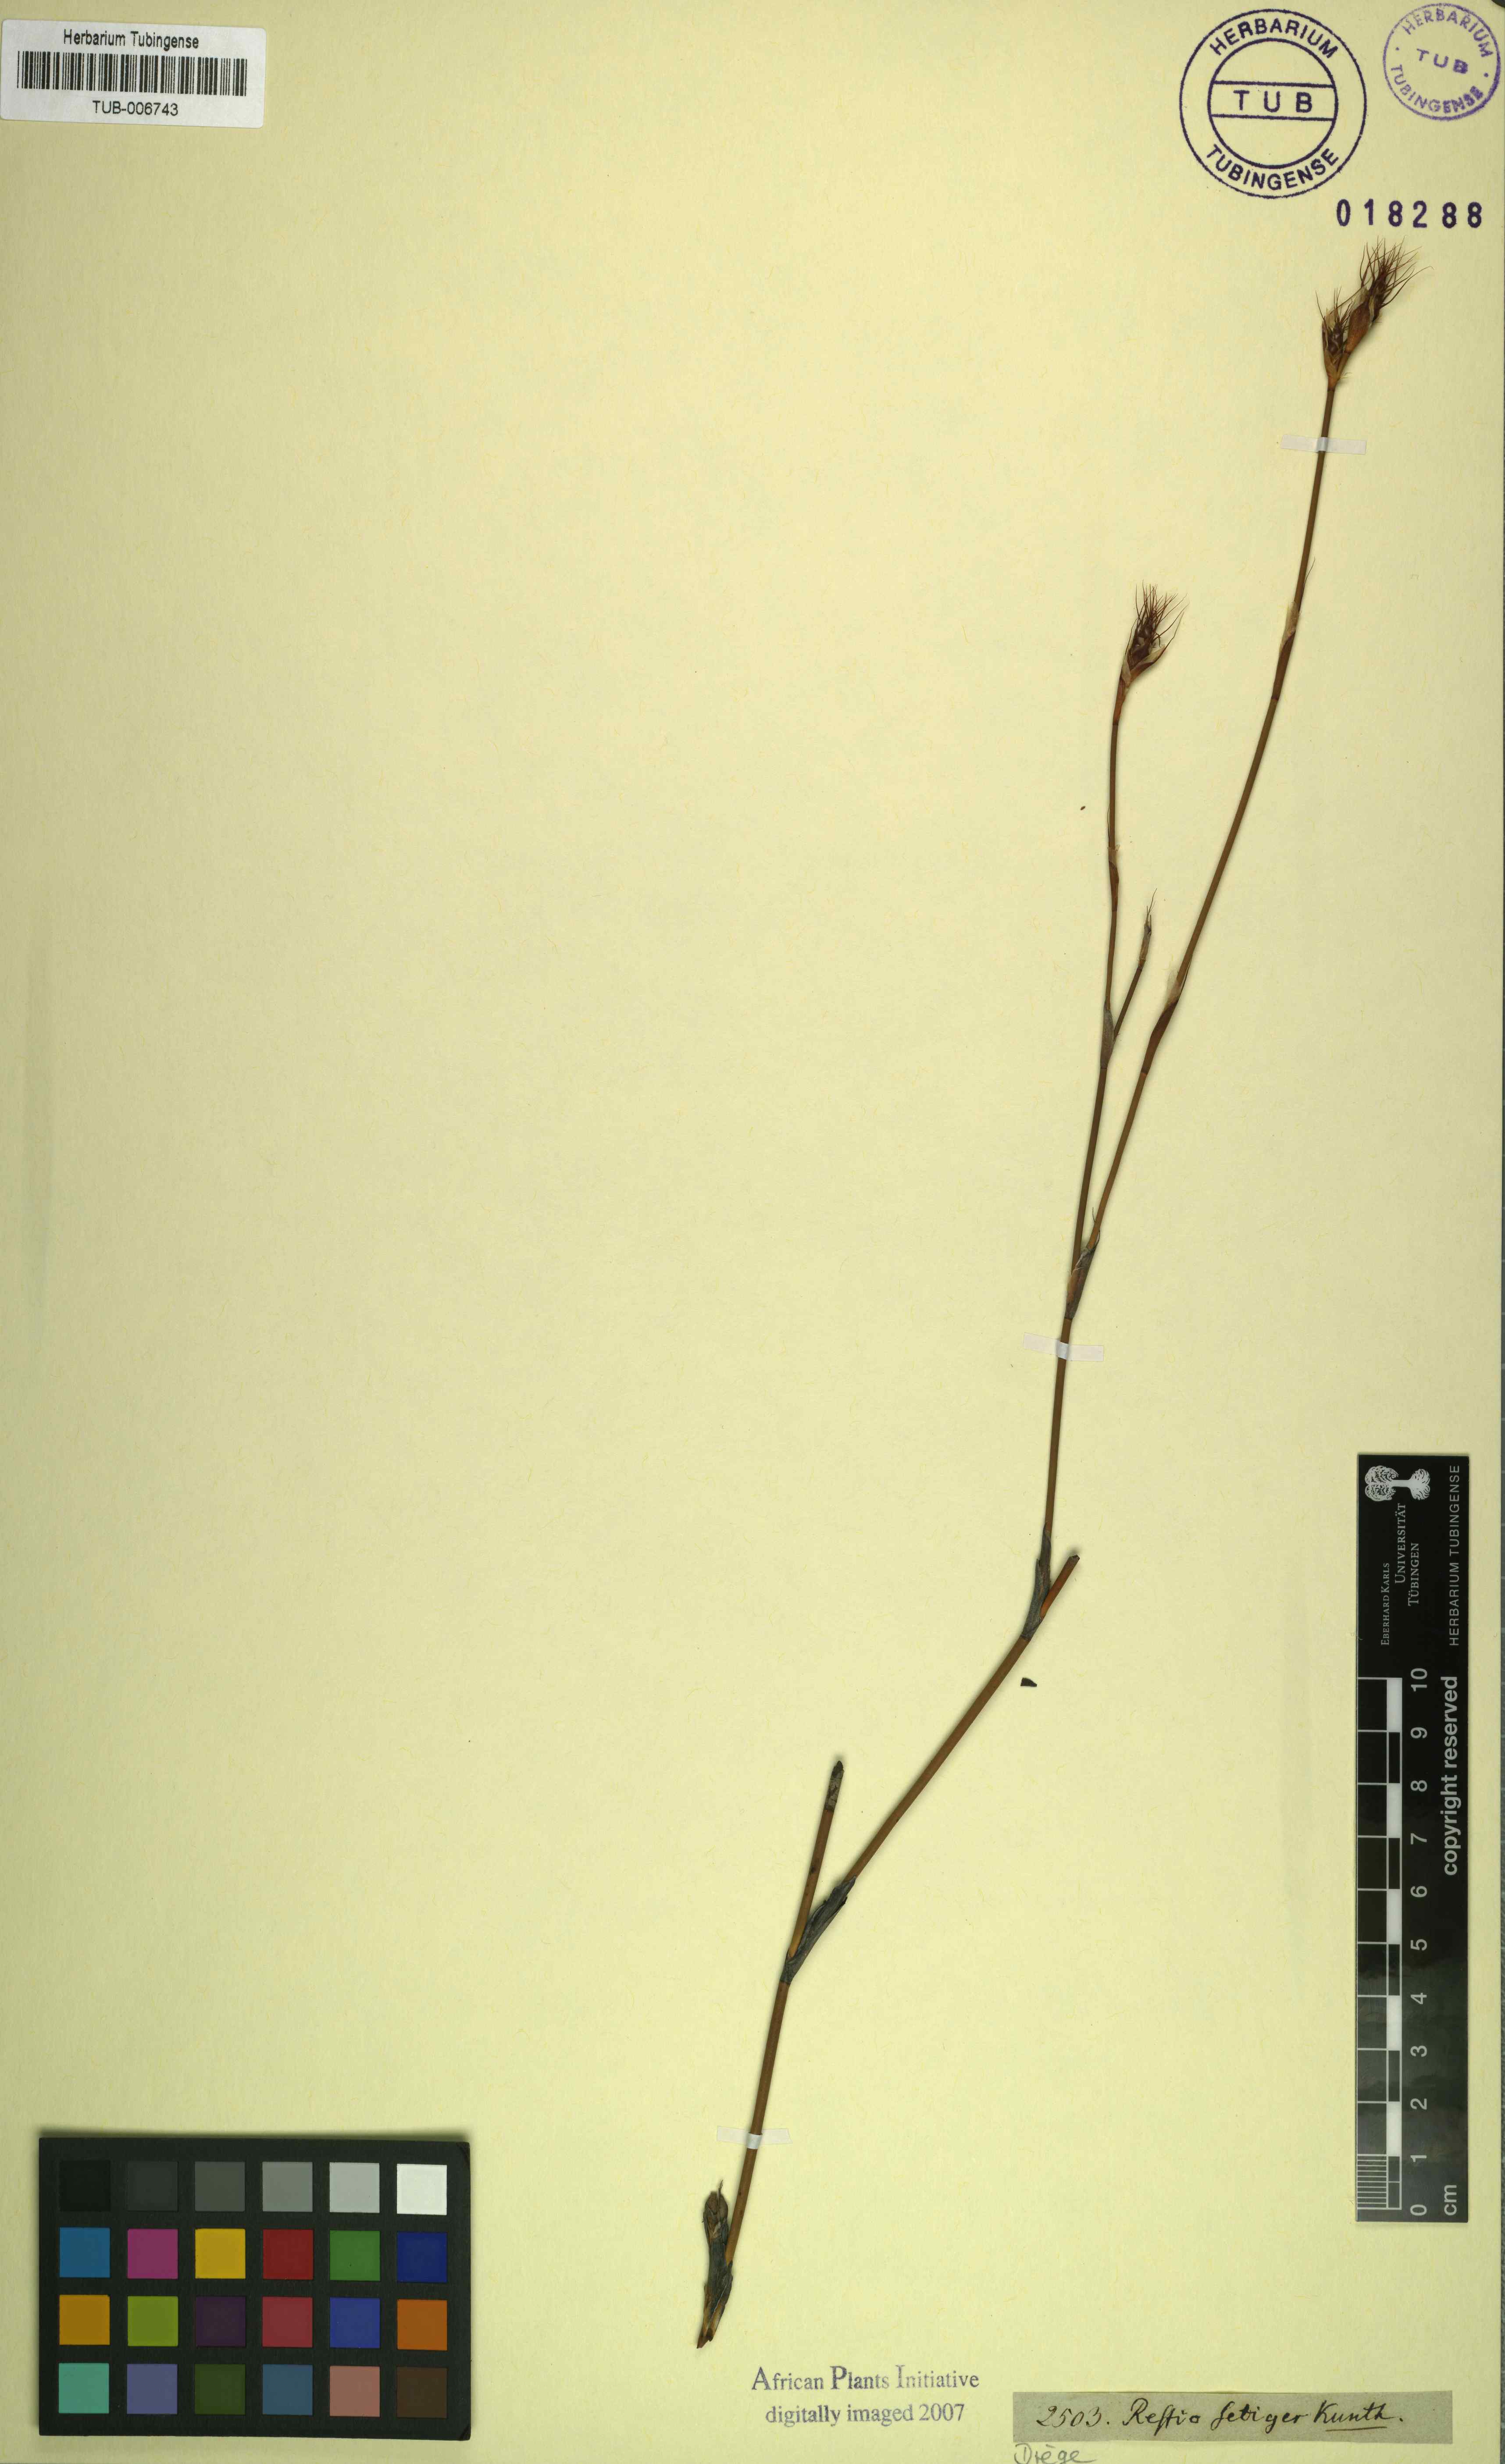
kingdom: Plantae
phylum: Tracheophyta
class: Liliopsida
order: Poales
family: Restionaceae
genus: Restio
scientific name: Restio setiger
